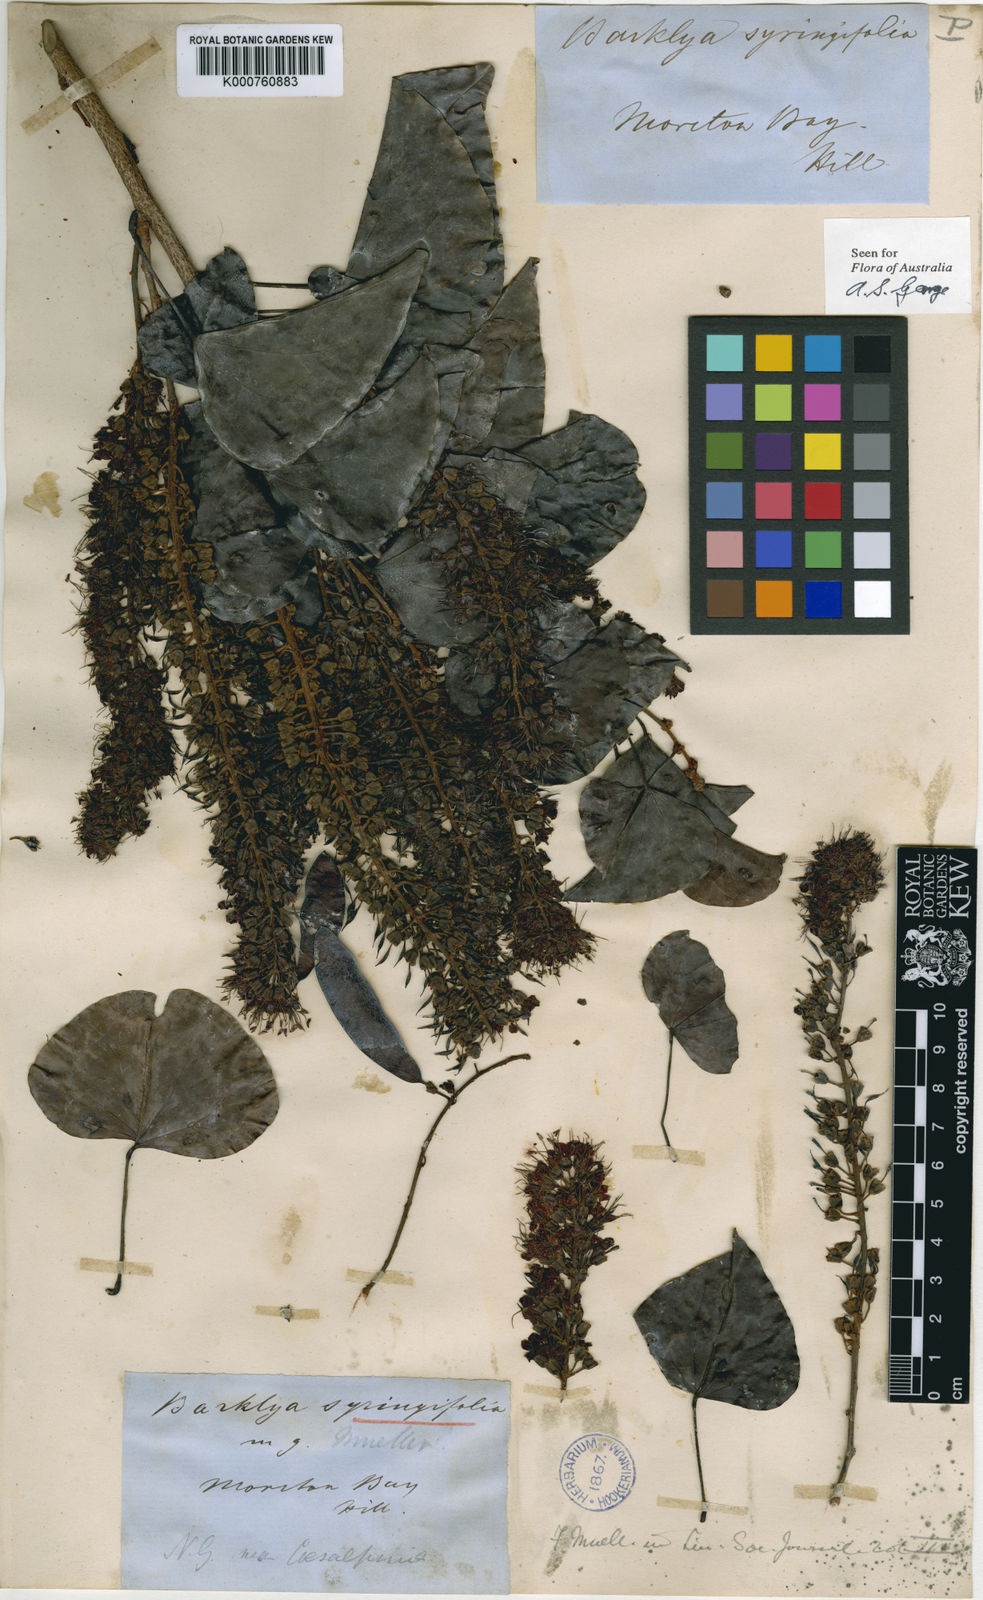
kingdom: Plantae
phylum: Tracheophyta
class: Magnoliopsida
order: Fabales
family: Fabaceae
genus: Barklya
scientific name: Barklya syringifolia
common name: Crown-of-gold-tree
